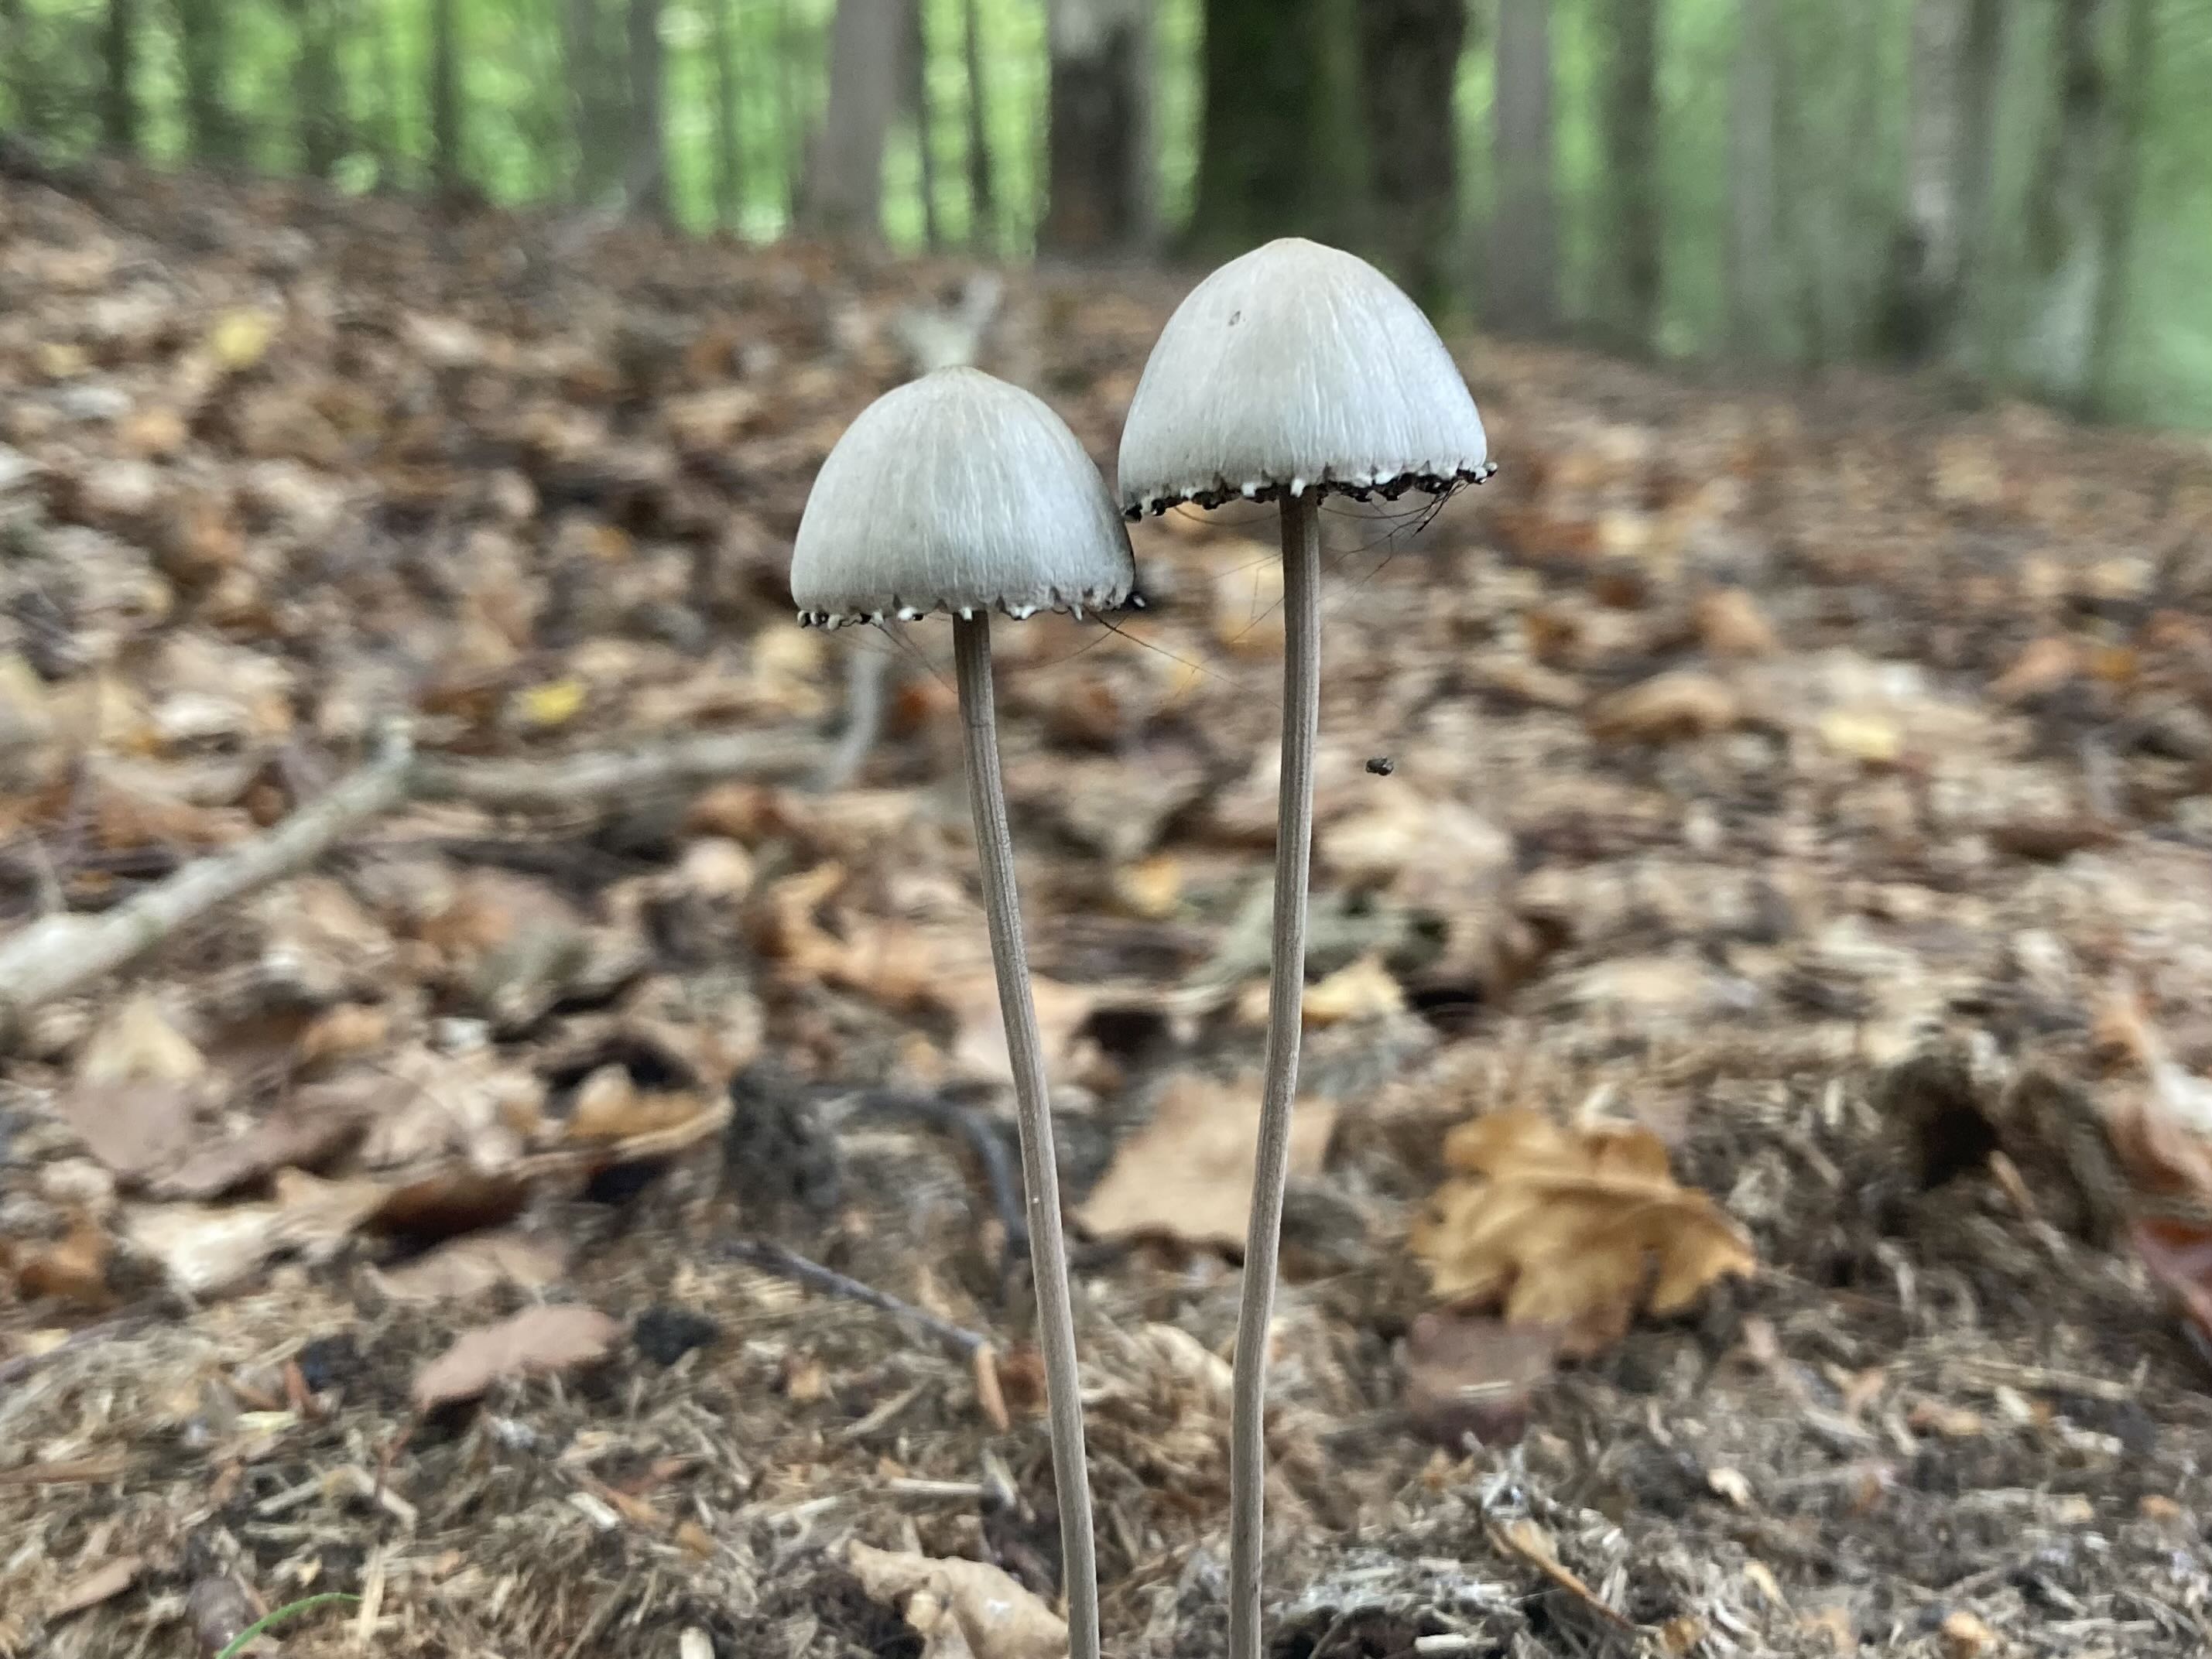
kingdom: Fungi
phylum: Basidiomycota
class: Agaricomycetes
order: Agaricales
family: Bolbitiaceae
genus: Panaeolus
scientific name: Panaeolus papilionaceus
